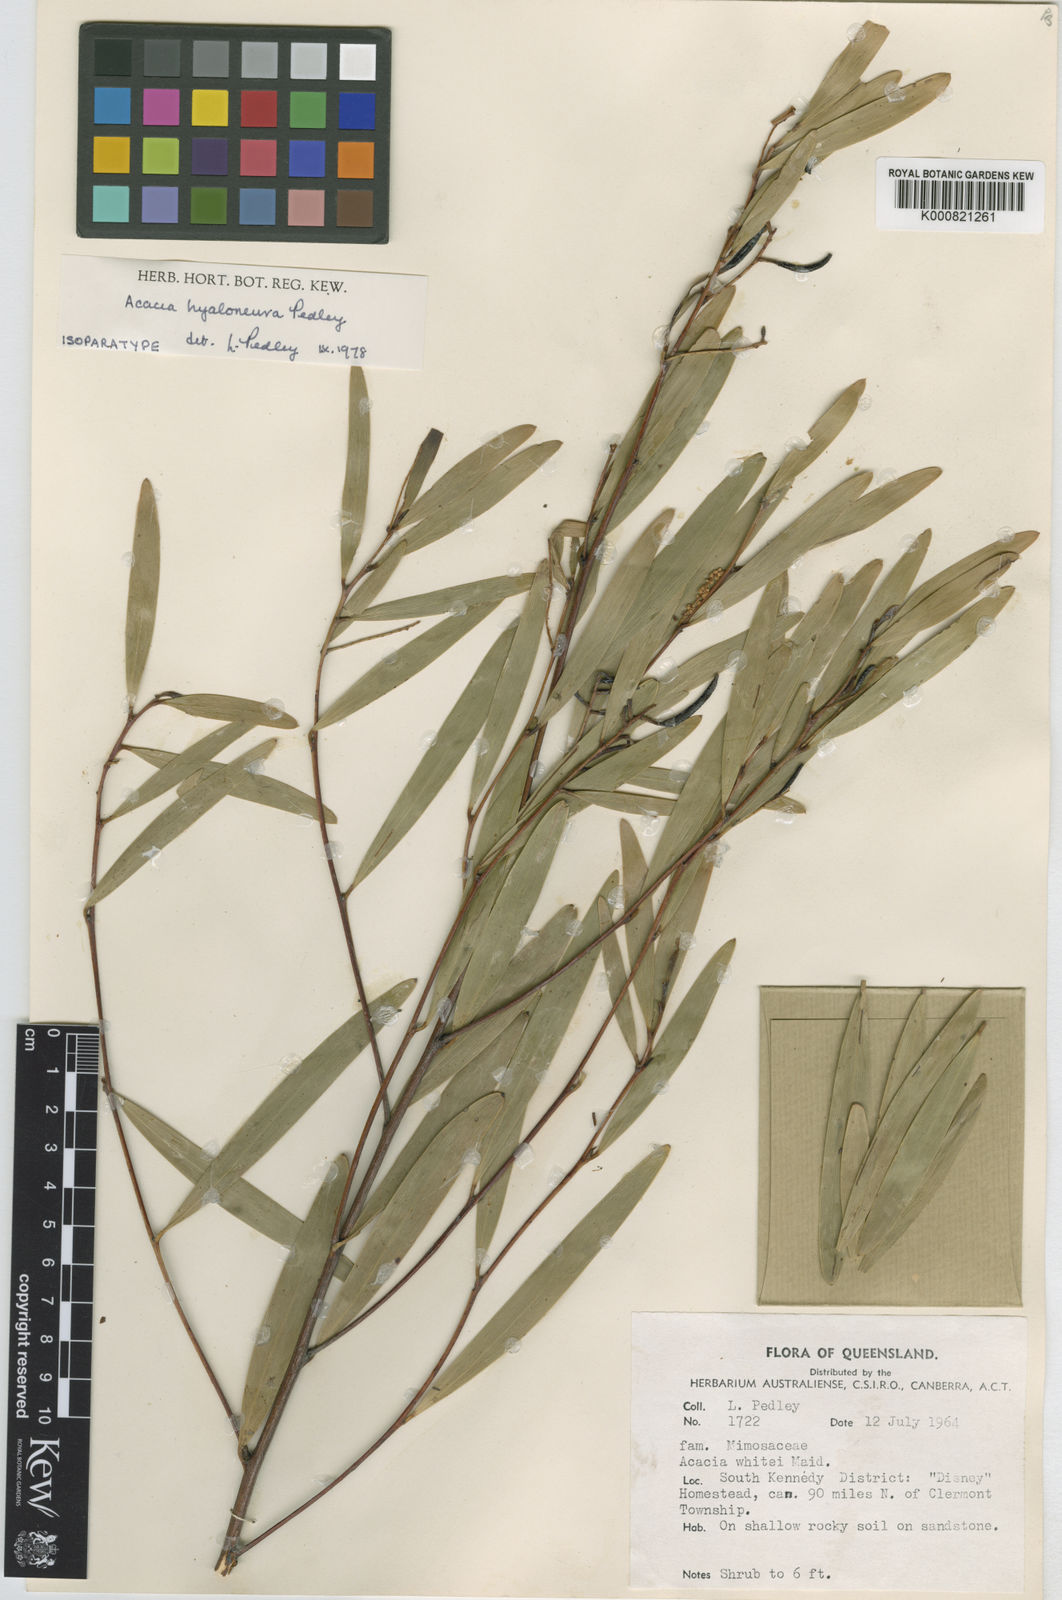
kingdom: Plantae
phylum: Tracheophyta
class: Magnoliopsida
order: Fabales
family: Fabaceae
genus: Acacia
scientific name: Acacia hyaloneura
